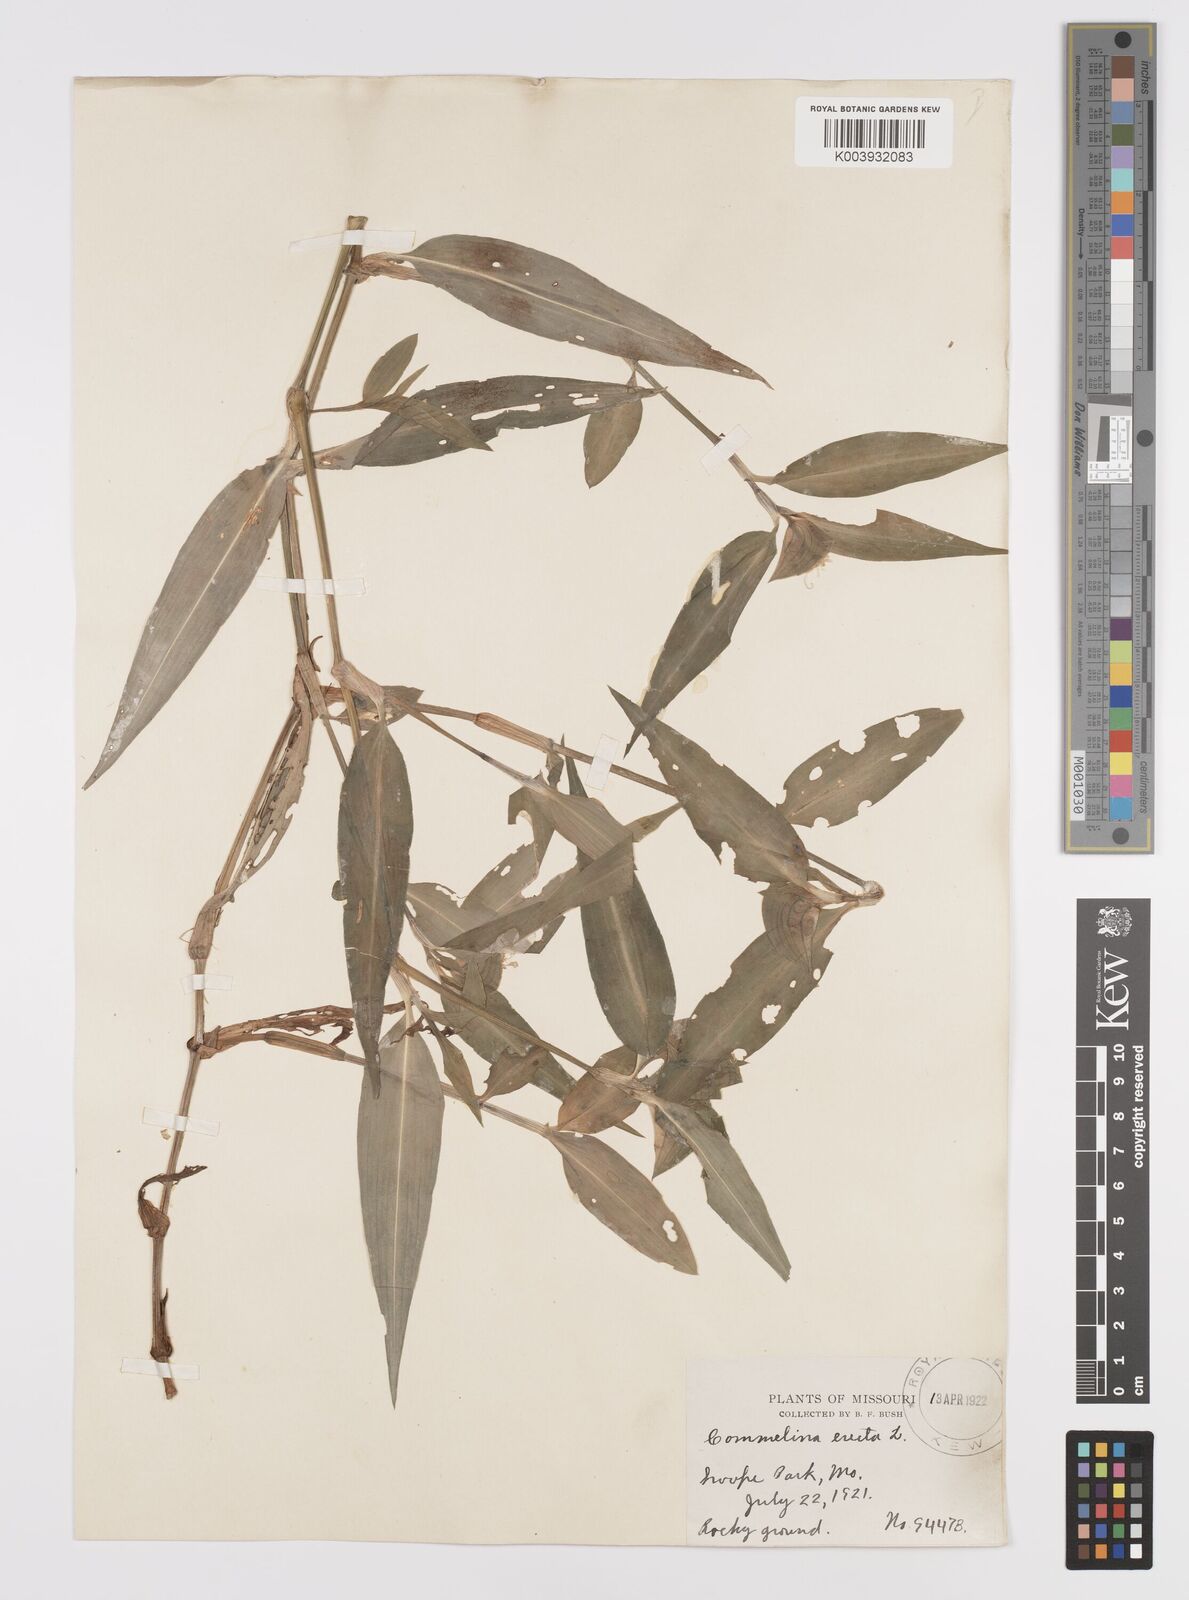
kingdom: Plantae
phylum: Tracheophyta
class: Liliopsida
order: Commelinales
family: Commelinaceae
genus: Commelina
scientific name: Commelina erecta
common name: Blousel blommetjie
